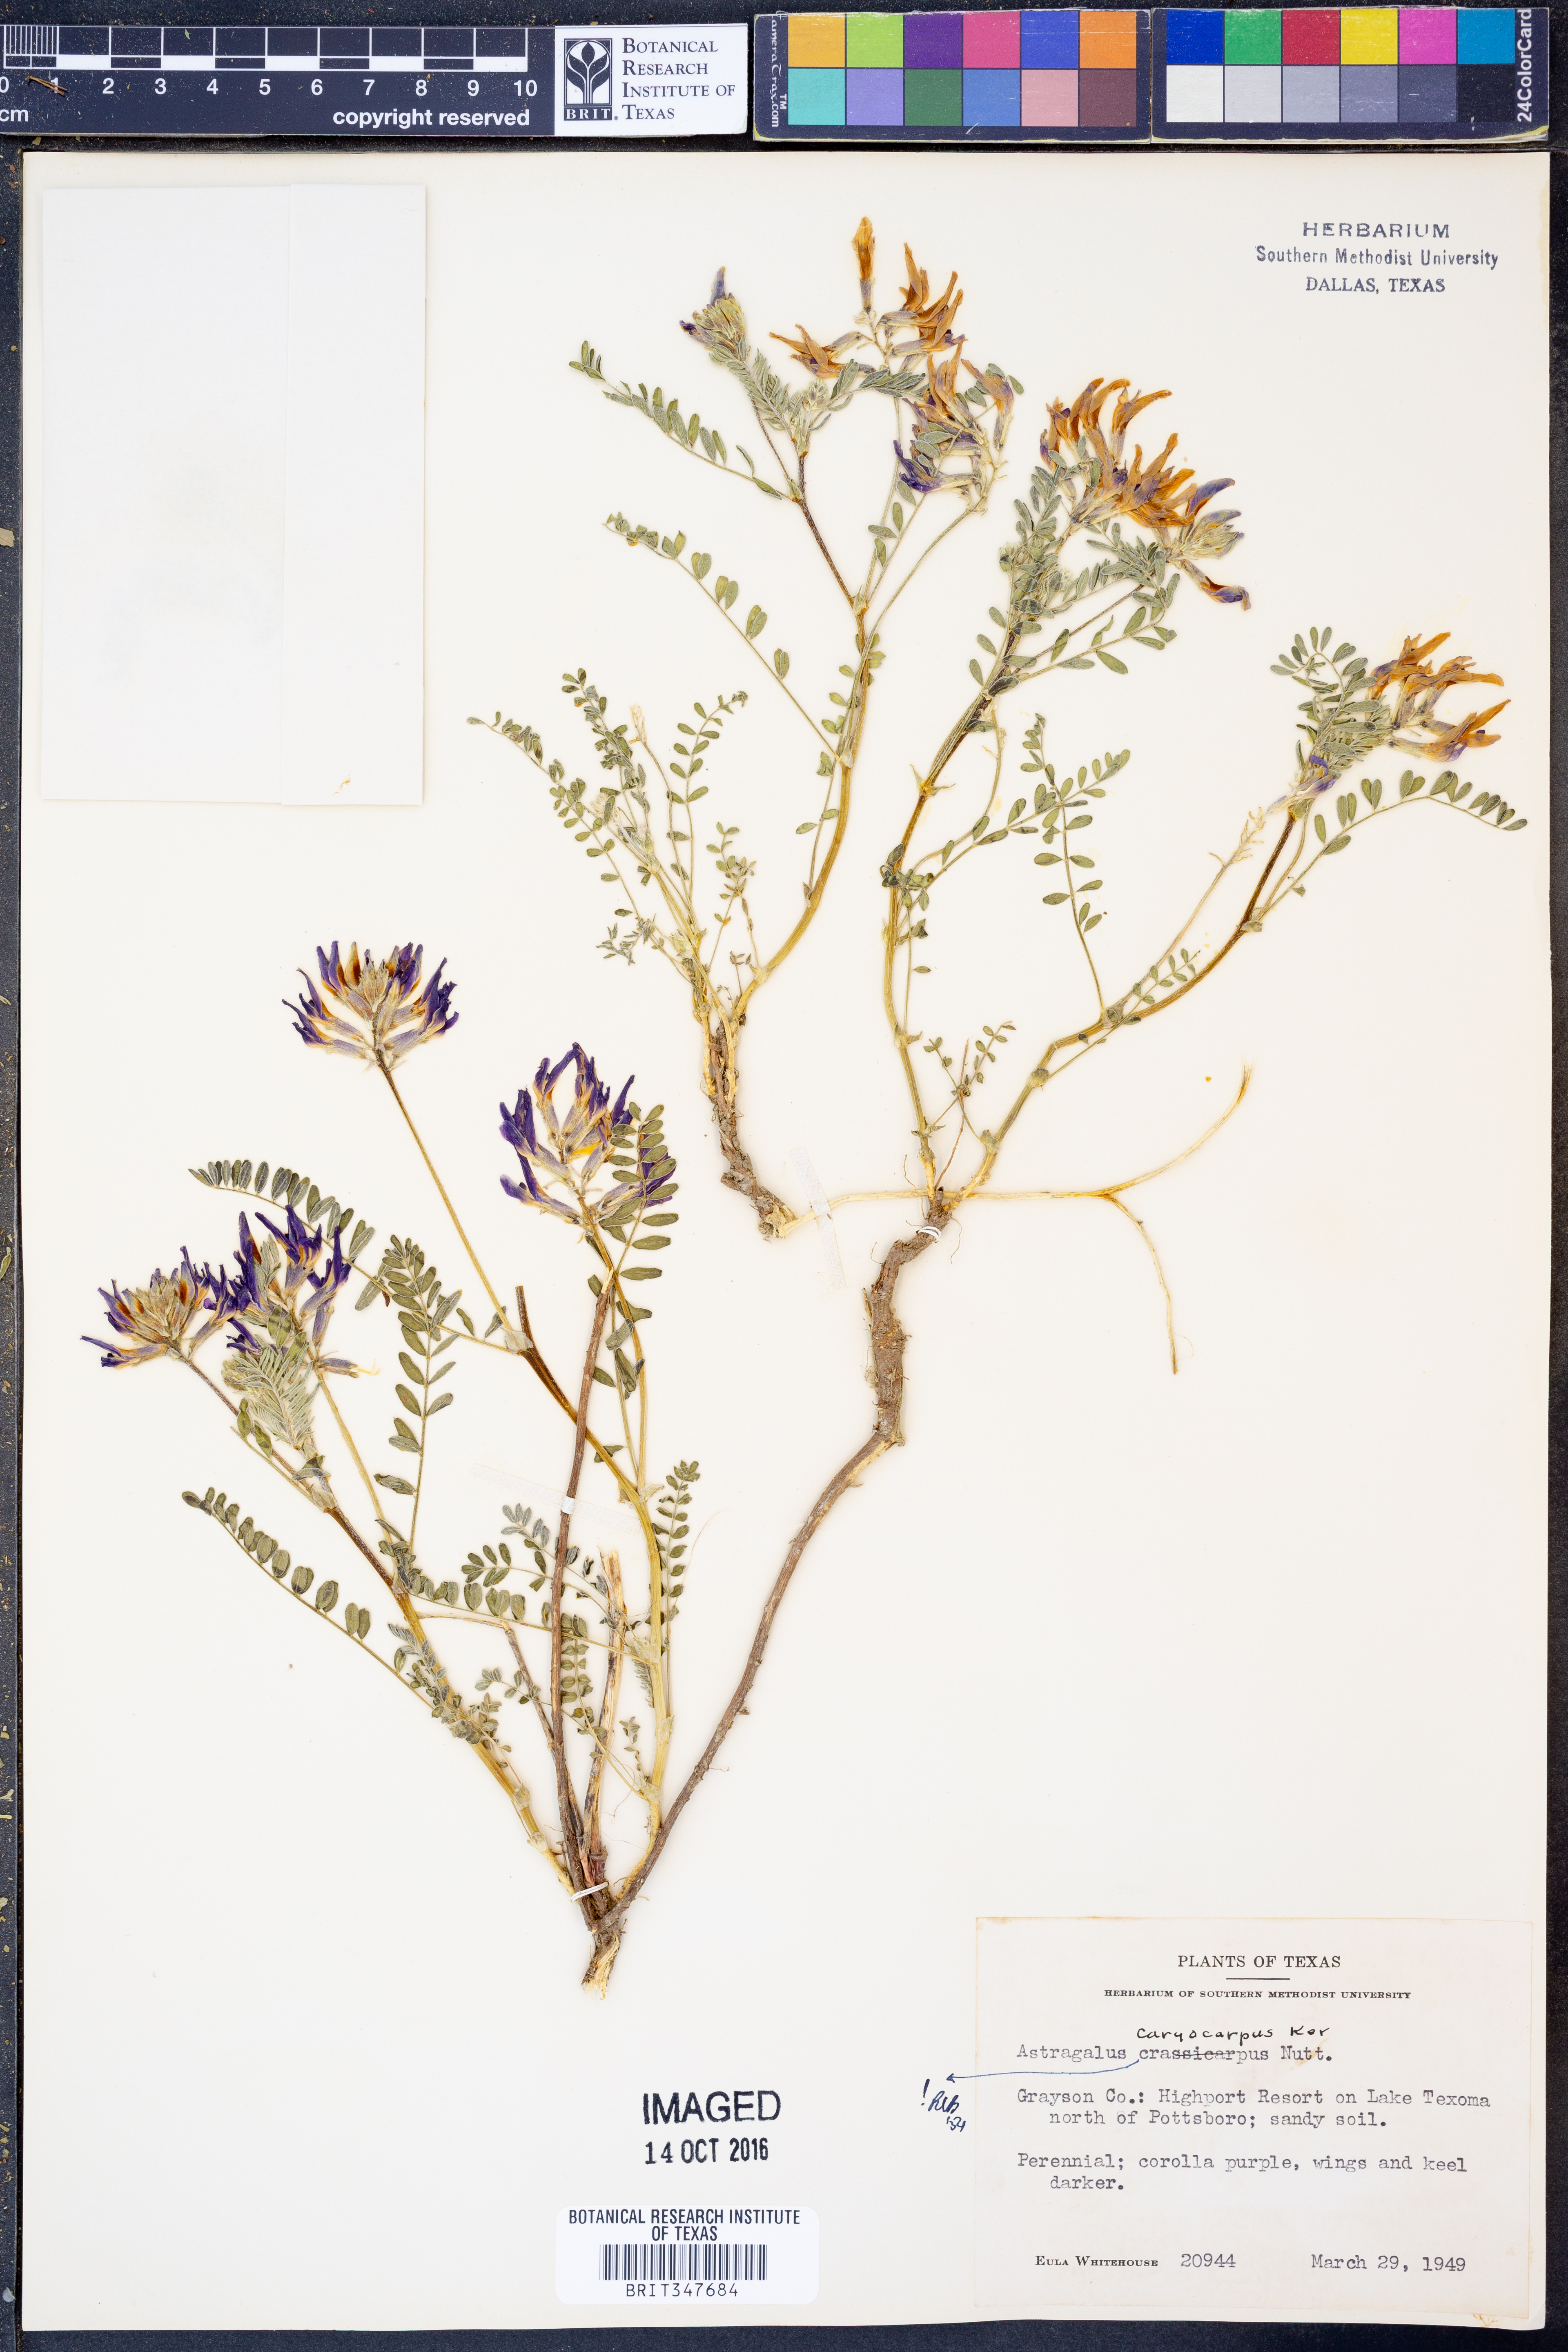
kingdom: Plantae
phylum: Tracheophyta
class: Magnoliopsida
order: Fabales
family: Fabaceae
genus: Astragalus
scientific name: Astragalus crassicarpus
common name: Ground-plum milk-vetch
